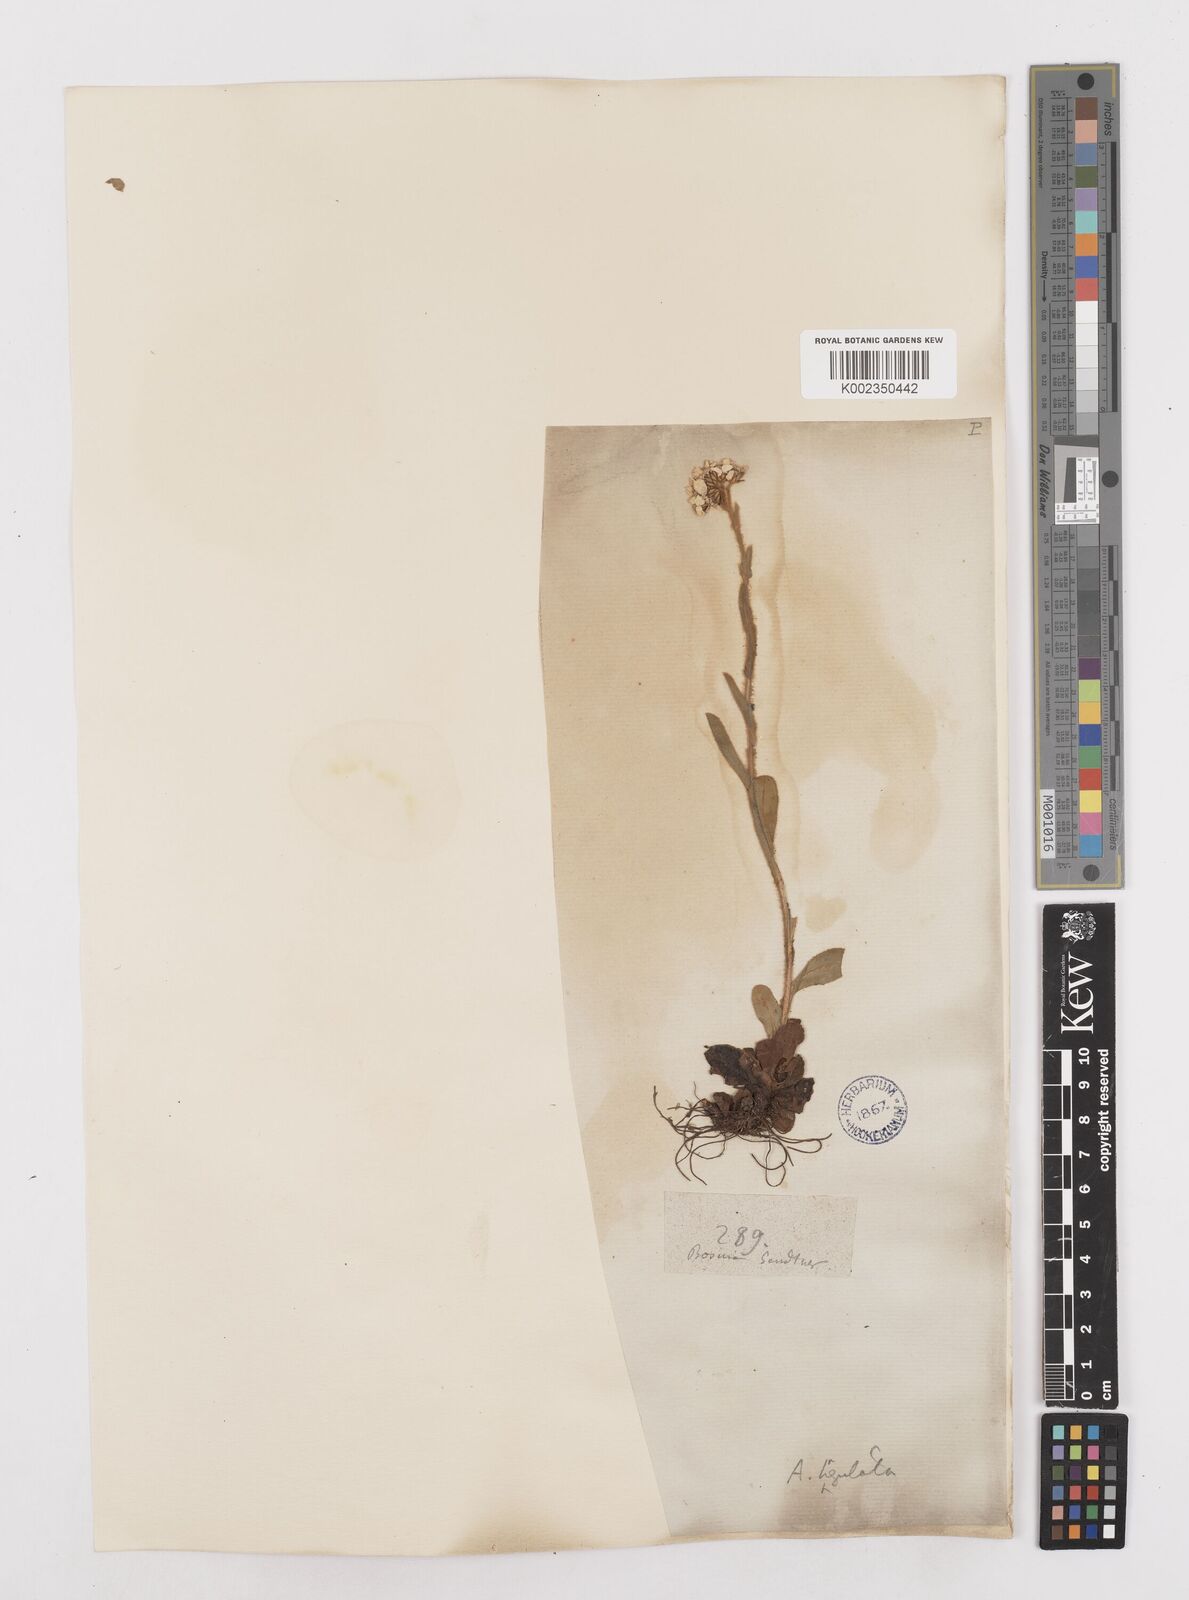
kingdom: Plantae
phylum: Tracheophyta
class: Magnoliopsida
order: Asterales
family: Asteraceae
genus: Achillea
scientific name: Achillea lingulata
